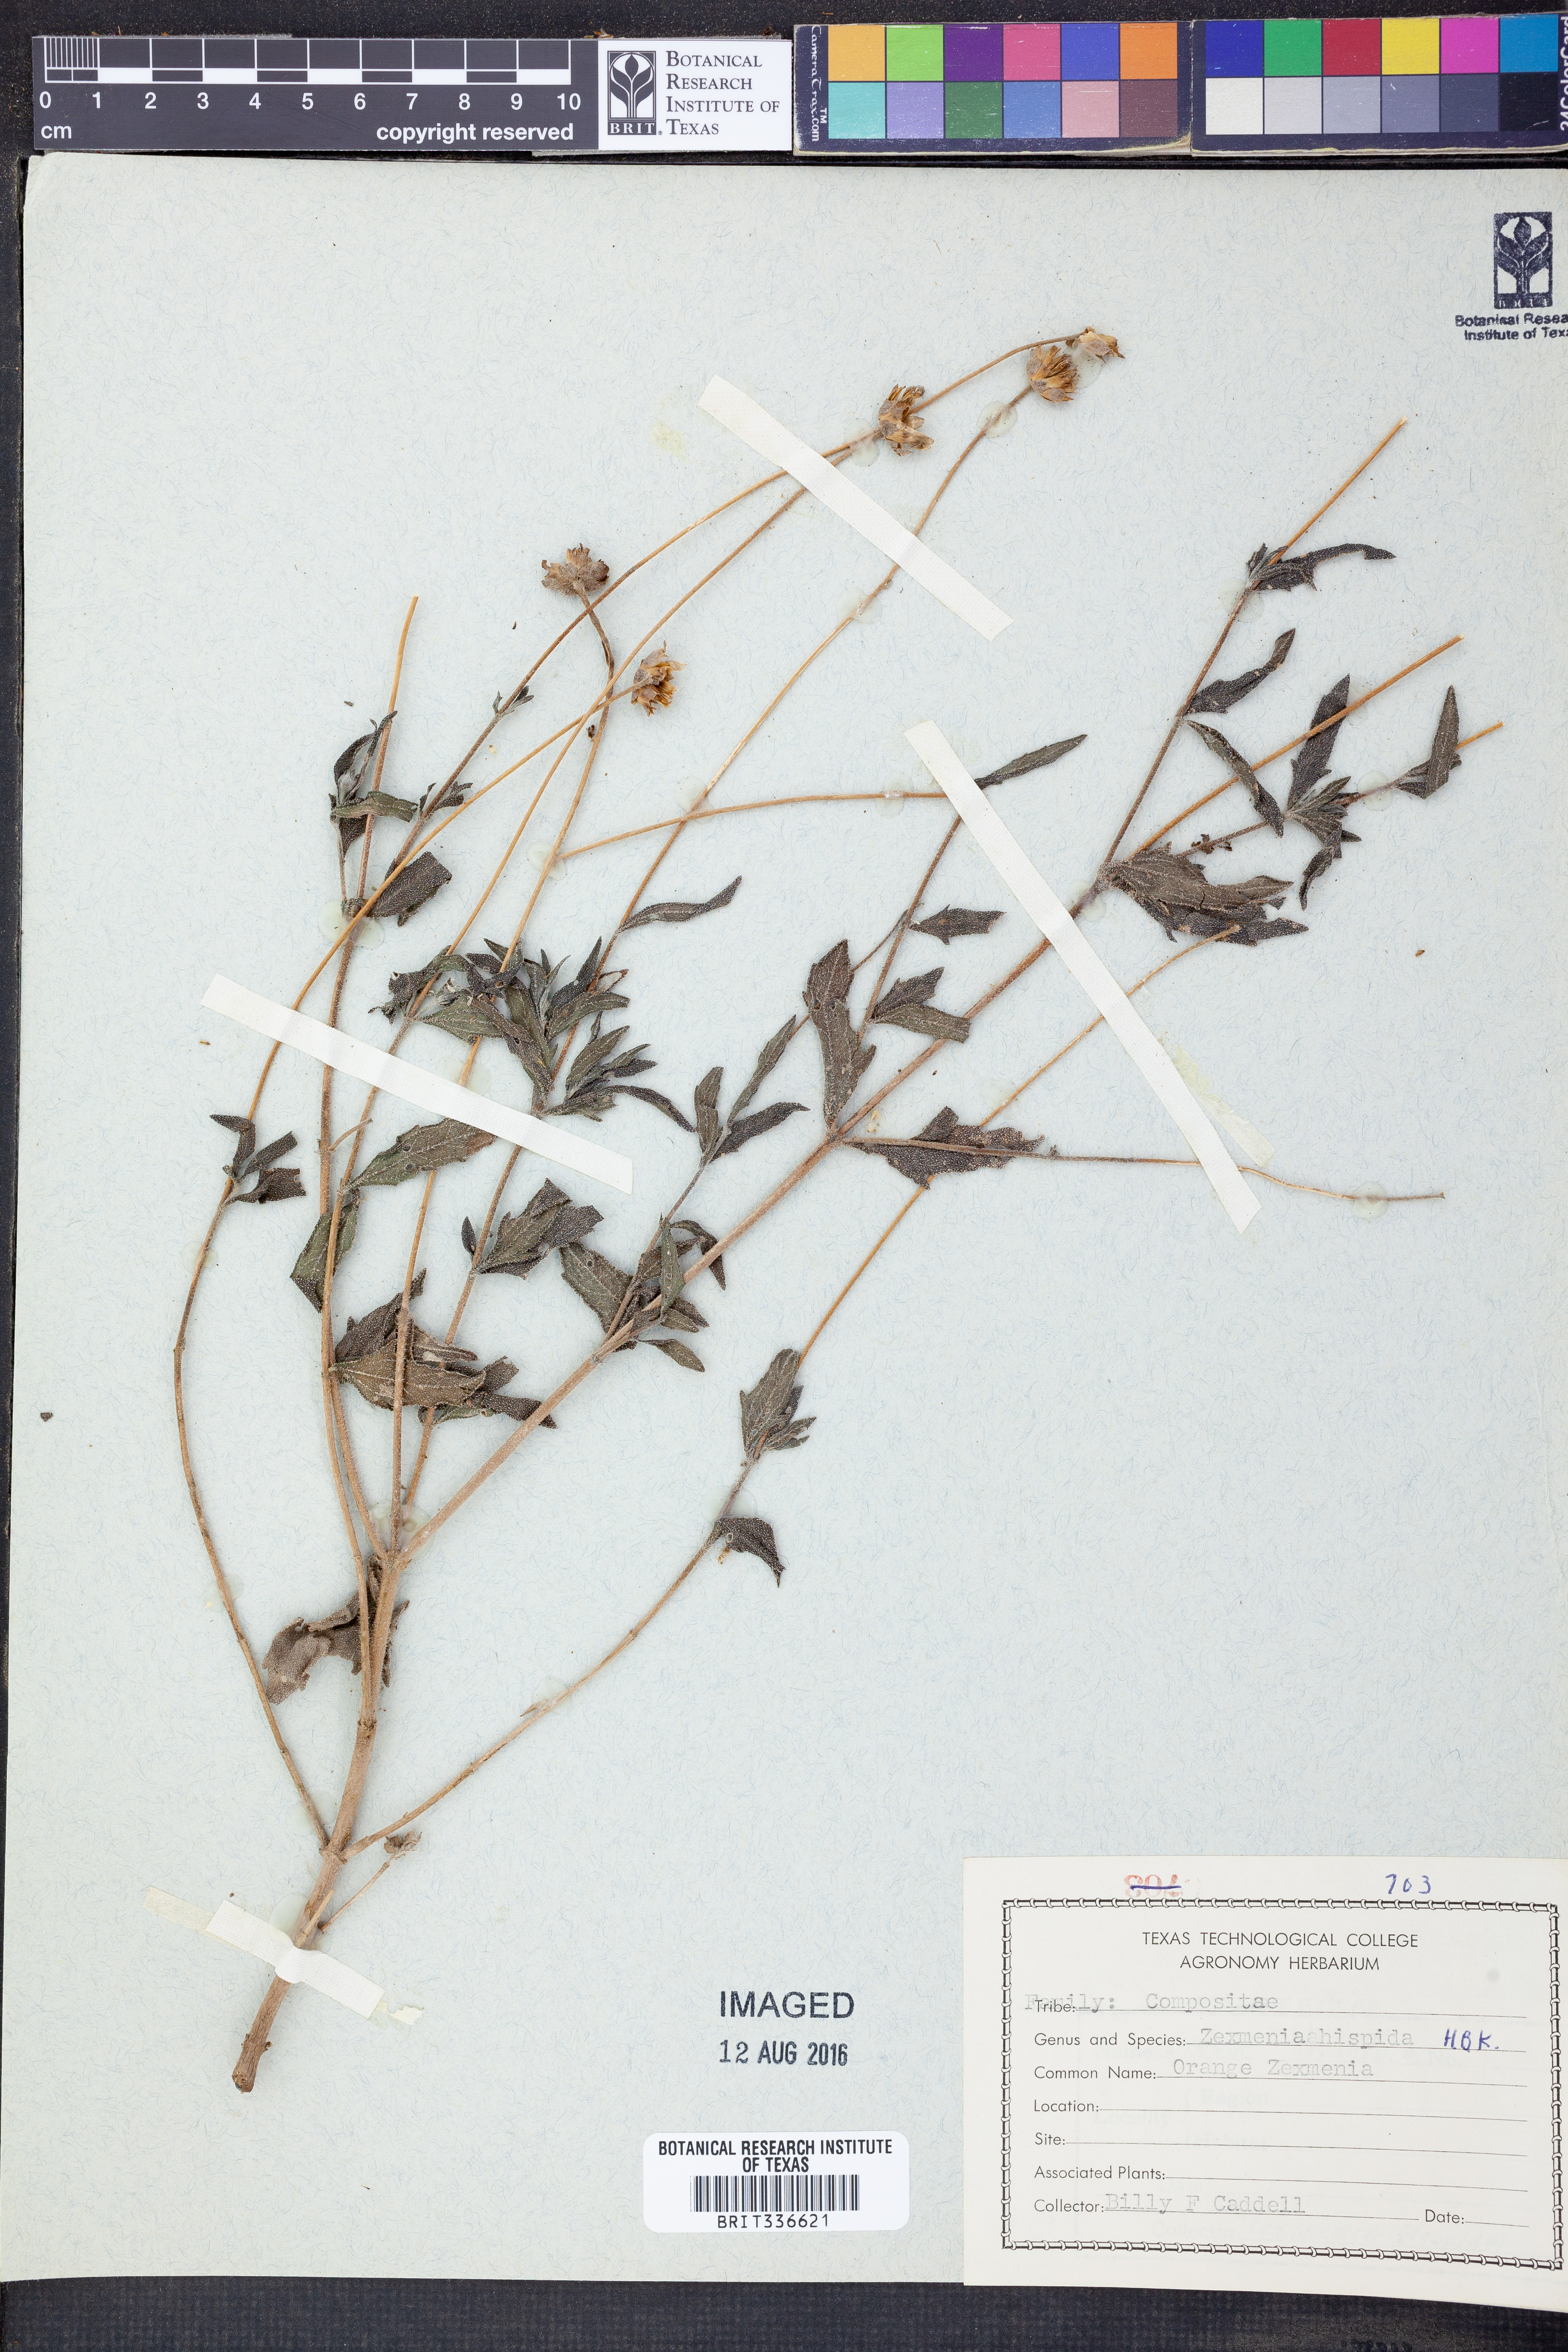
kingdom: Plantae
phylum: Tracheophyta
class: Magnoliopsida
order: Asterales
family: Asteraceae
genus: Wedelia
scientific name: Wedelia acapulcensis
